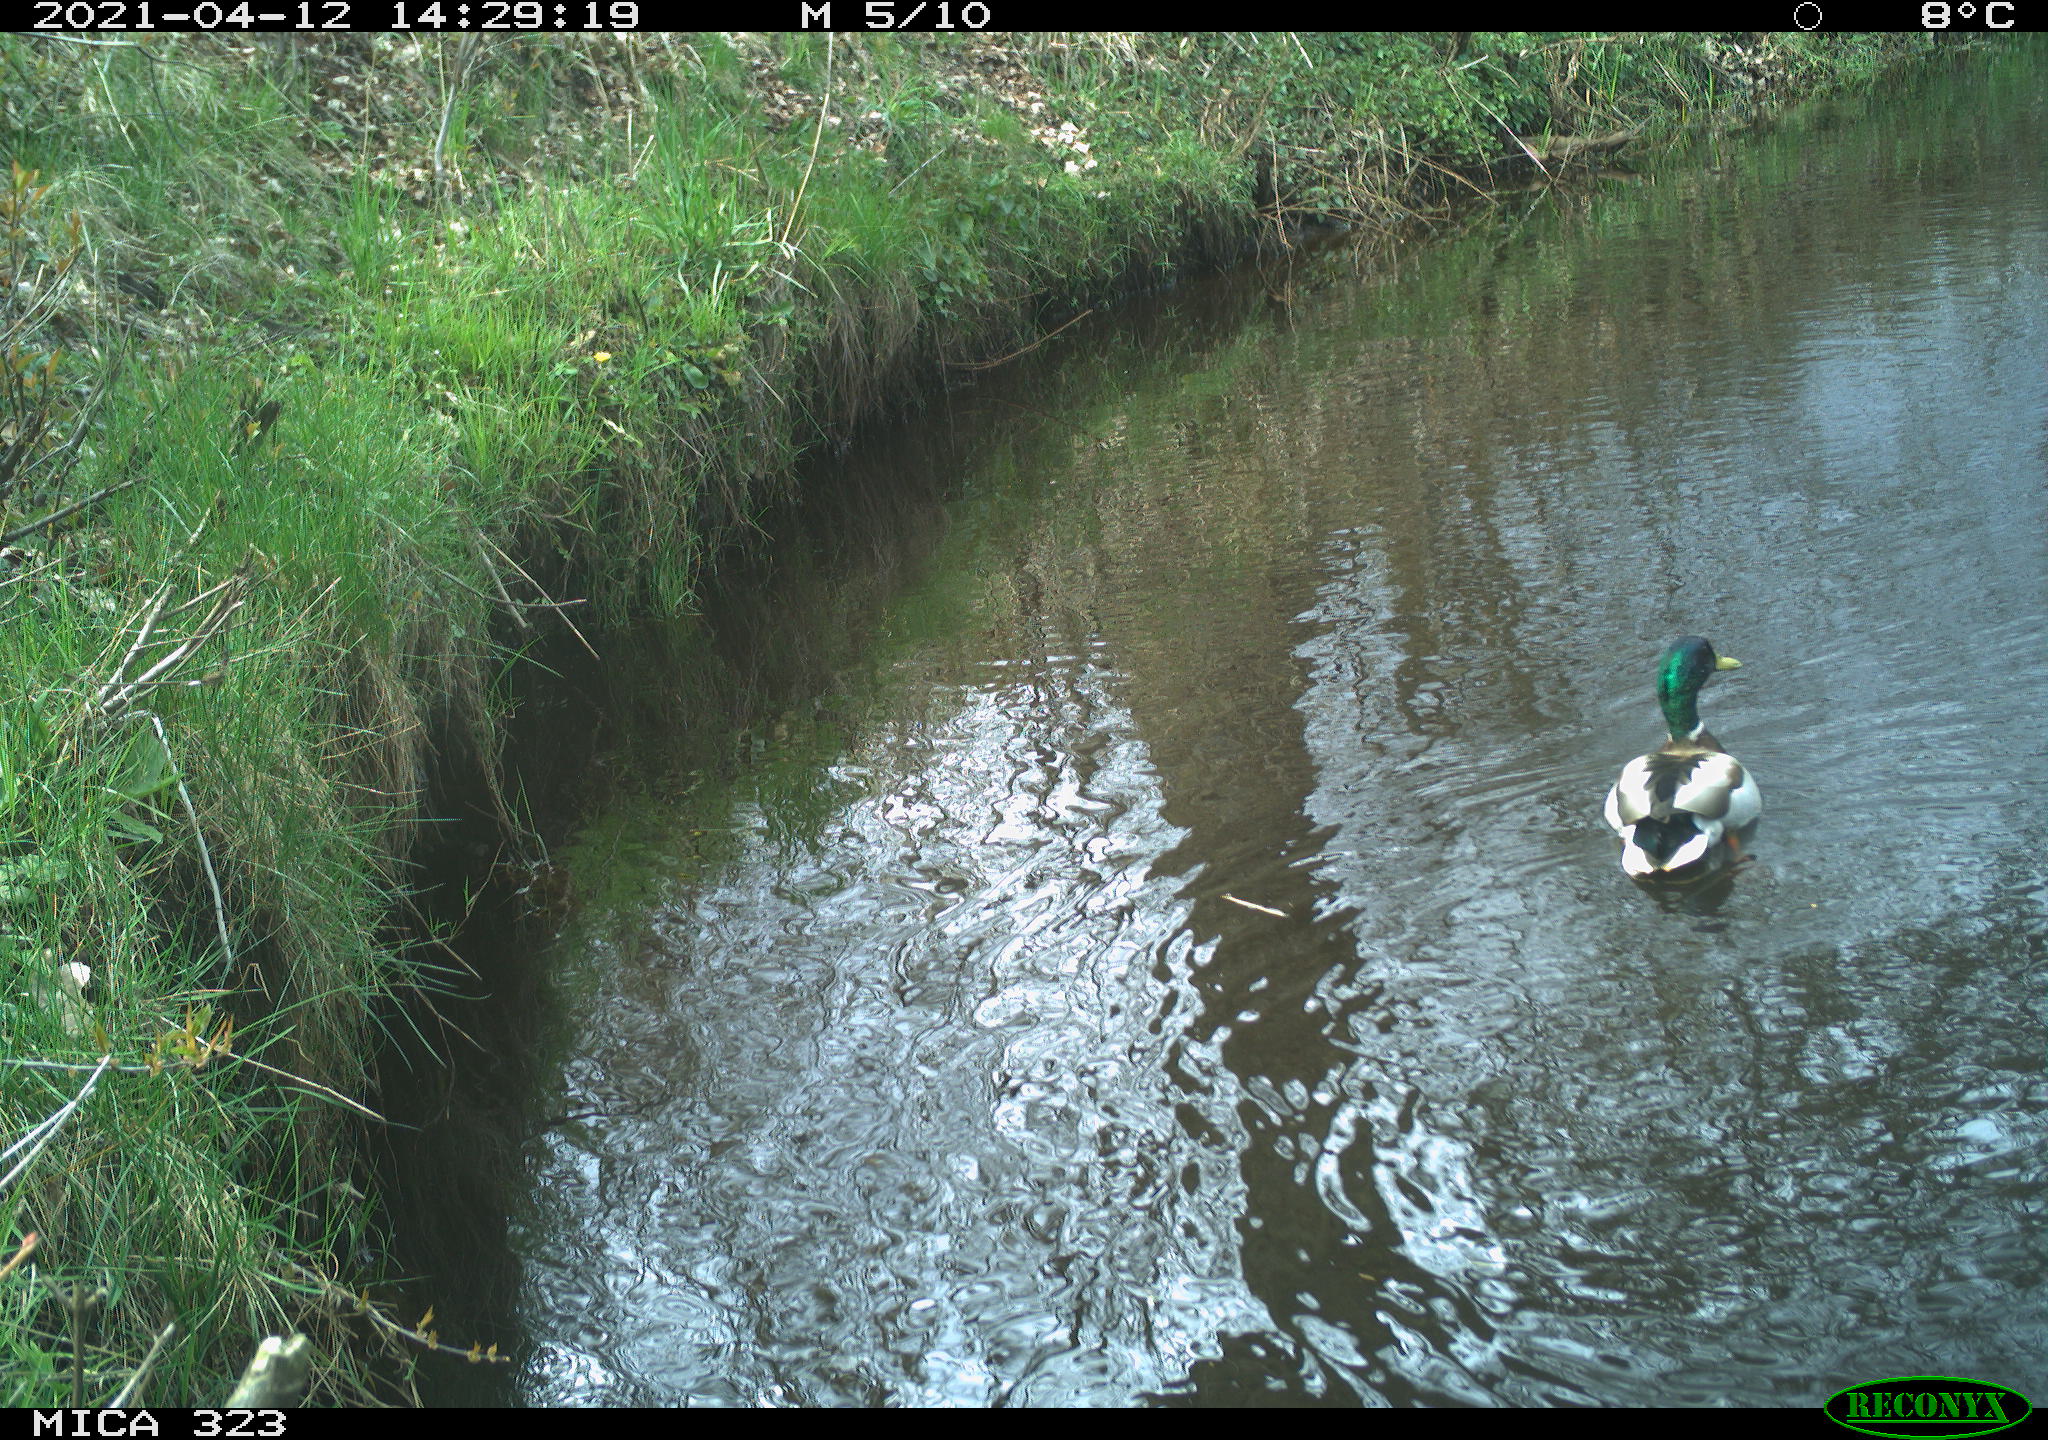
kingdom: Animalia
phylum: Chordata
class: Aves
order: Anseriformes
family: Anatidae
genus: Anas
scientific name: Anas platyrhynchos
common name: Mallard
